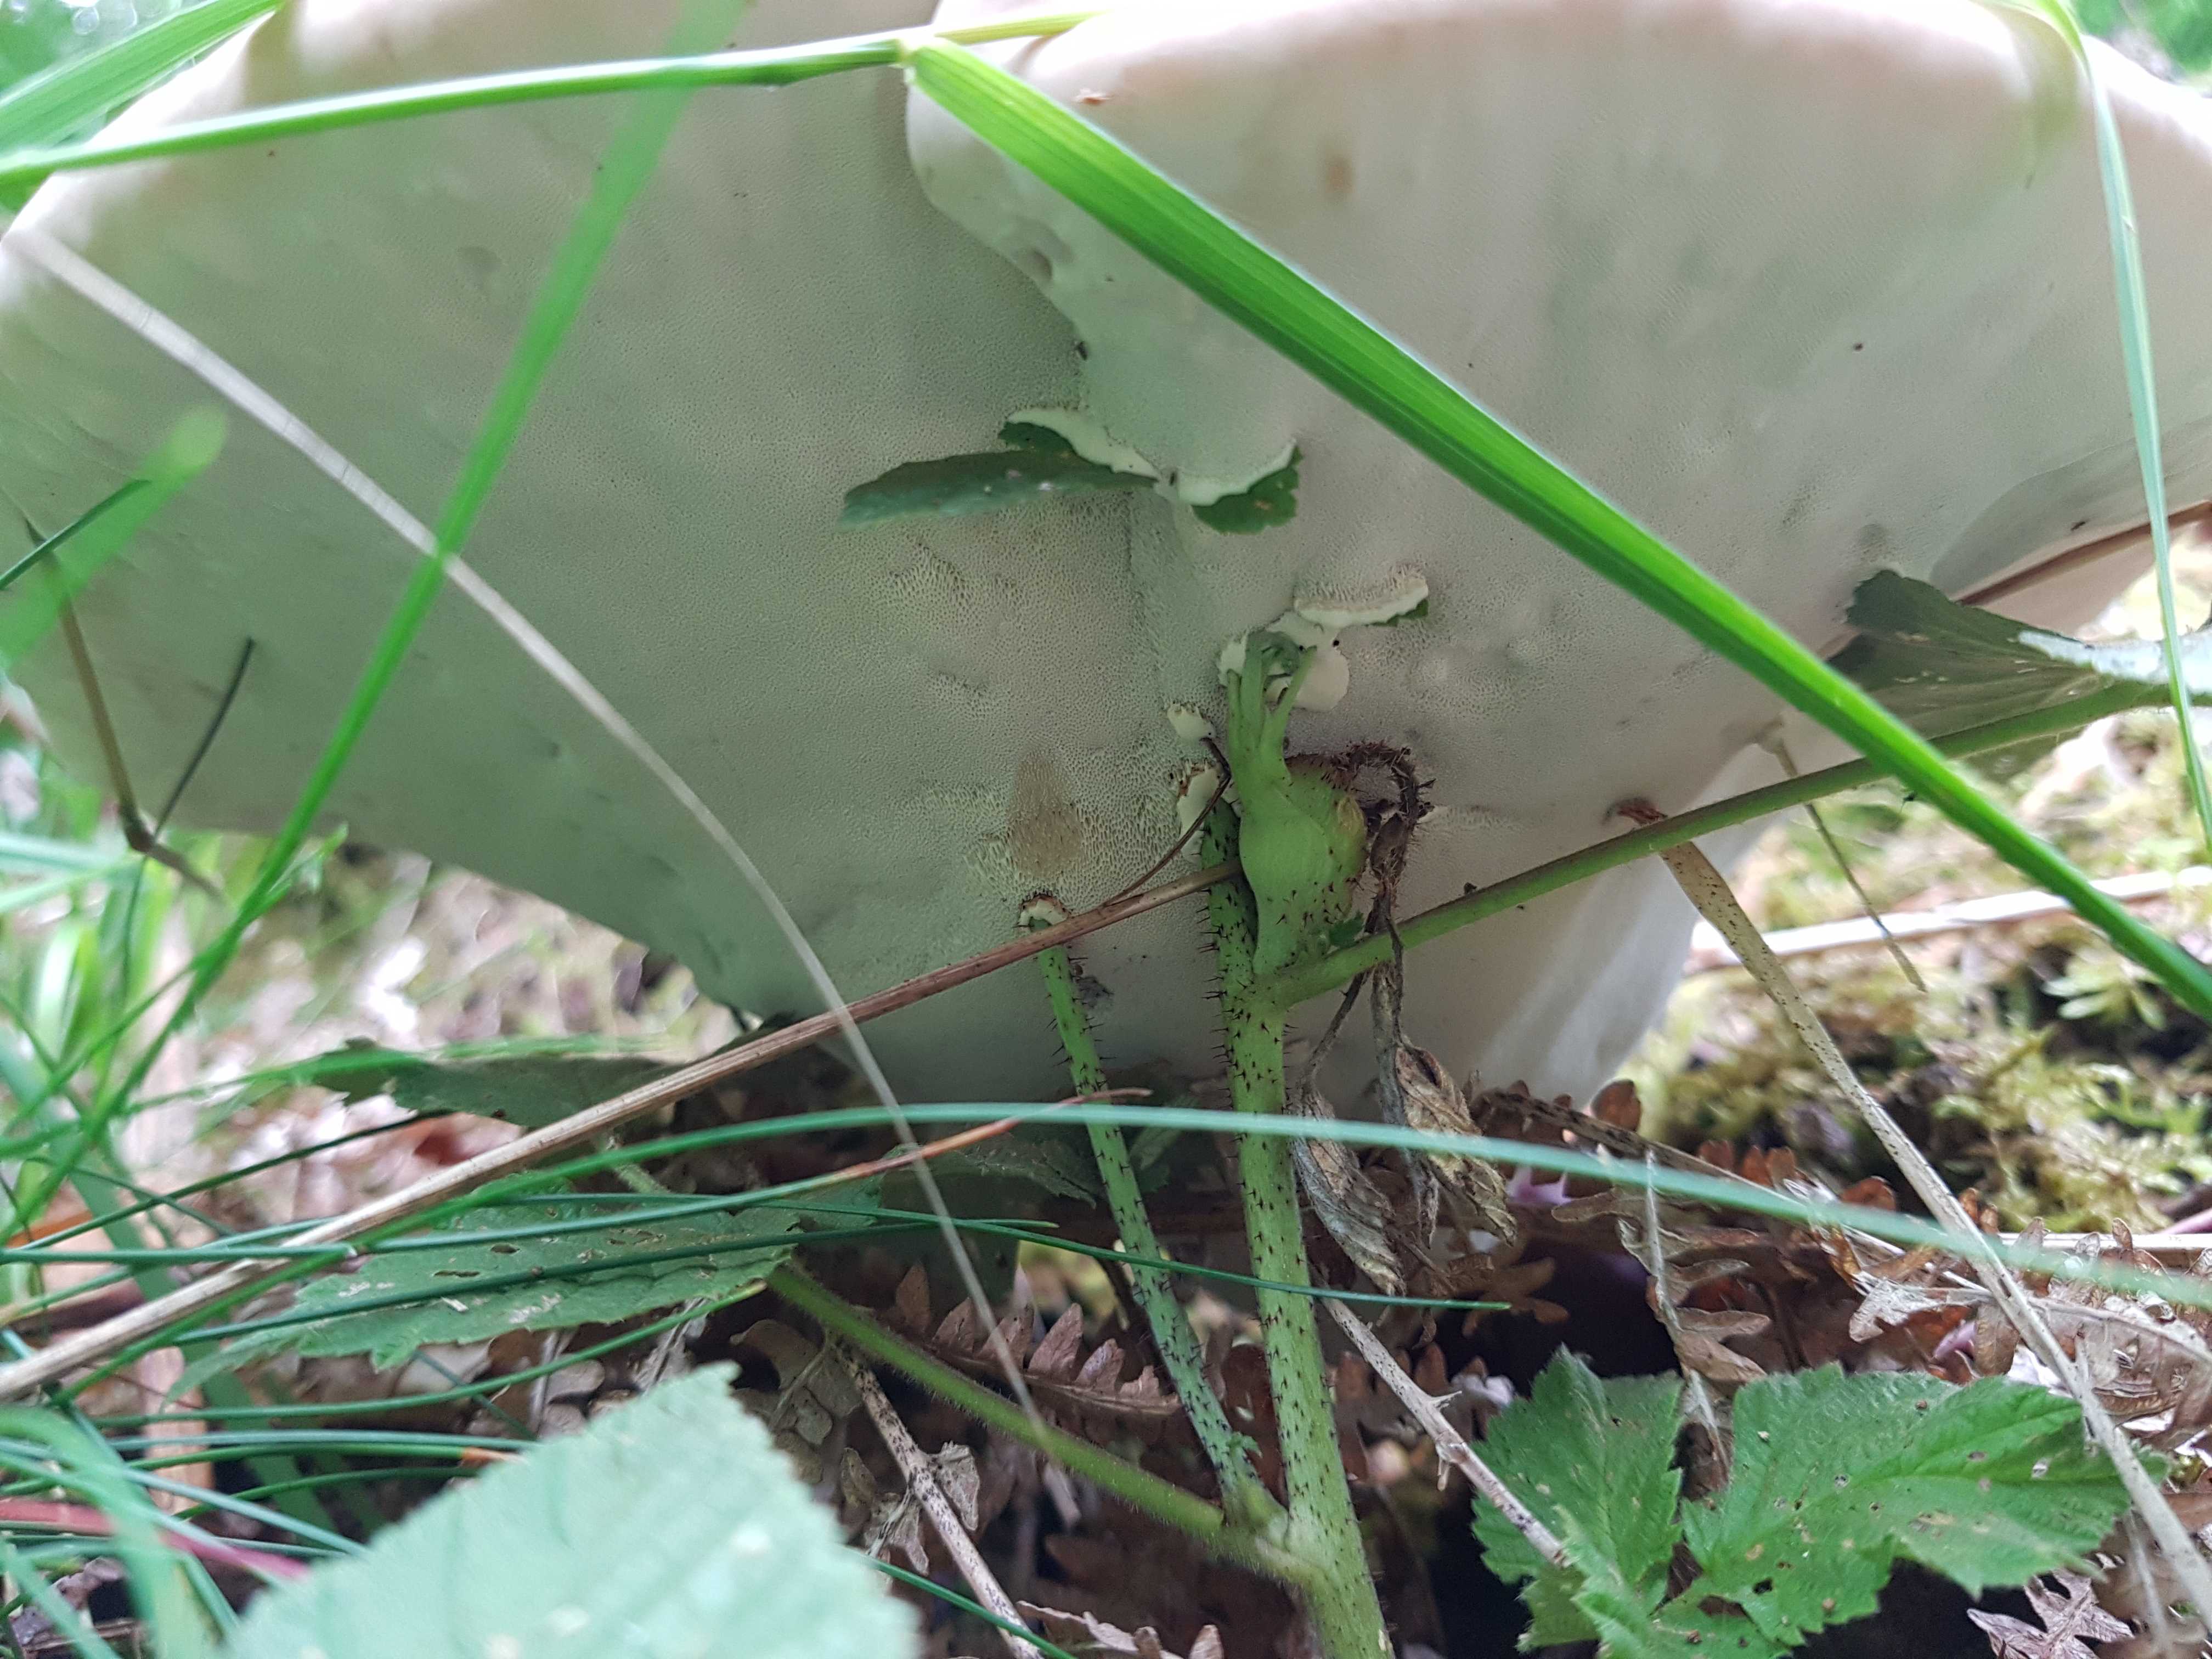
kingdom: Fungi
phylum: Basidiomycota
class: Agaricomycetes
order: Polyporales
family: Polyporaceae
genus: Ganoderma
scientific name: Ganoderma lucidum
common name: skinnende lakporesvamp
